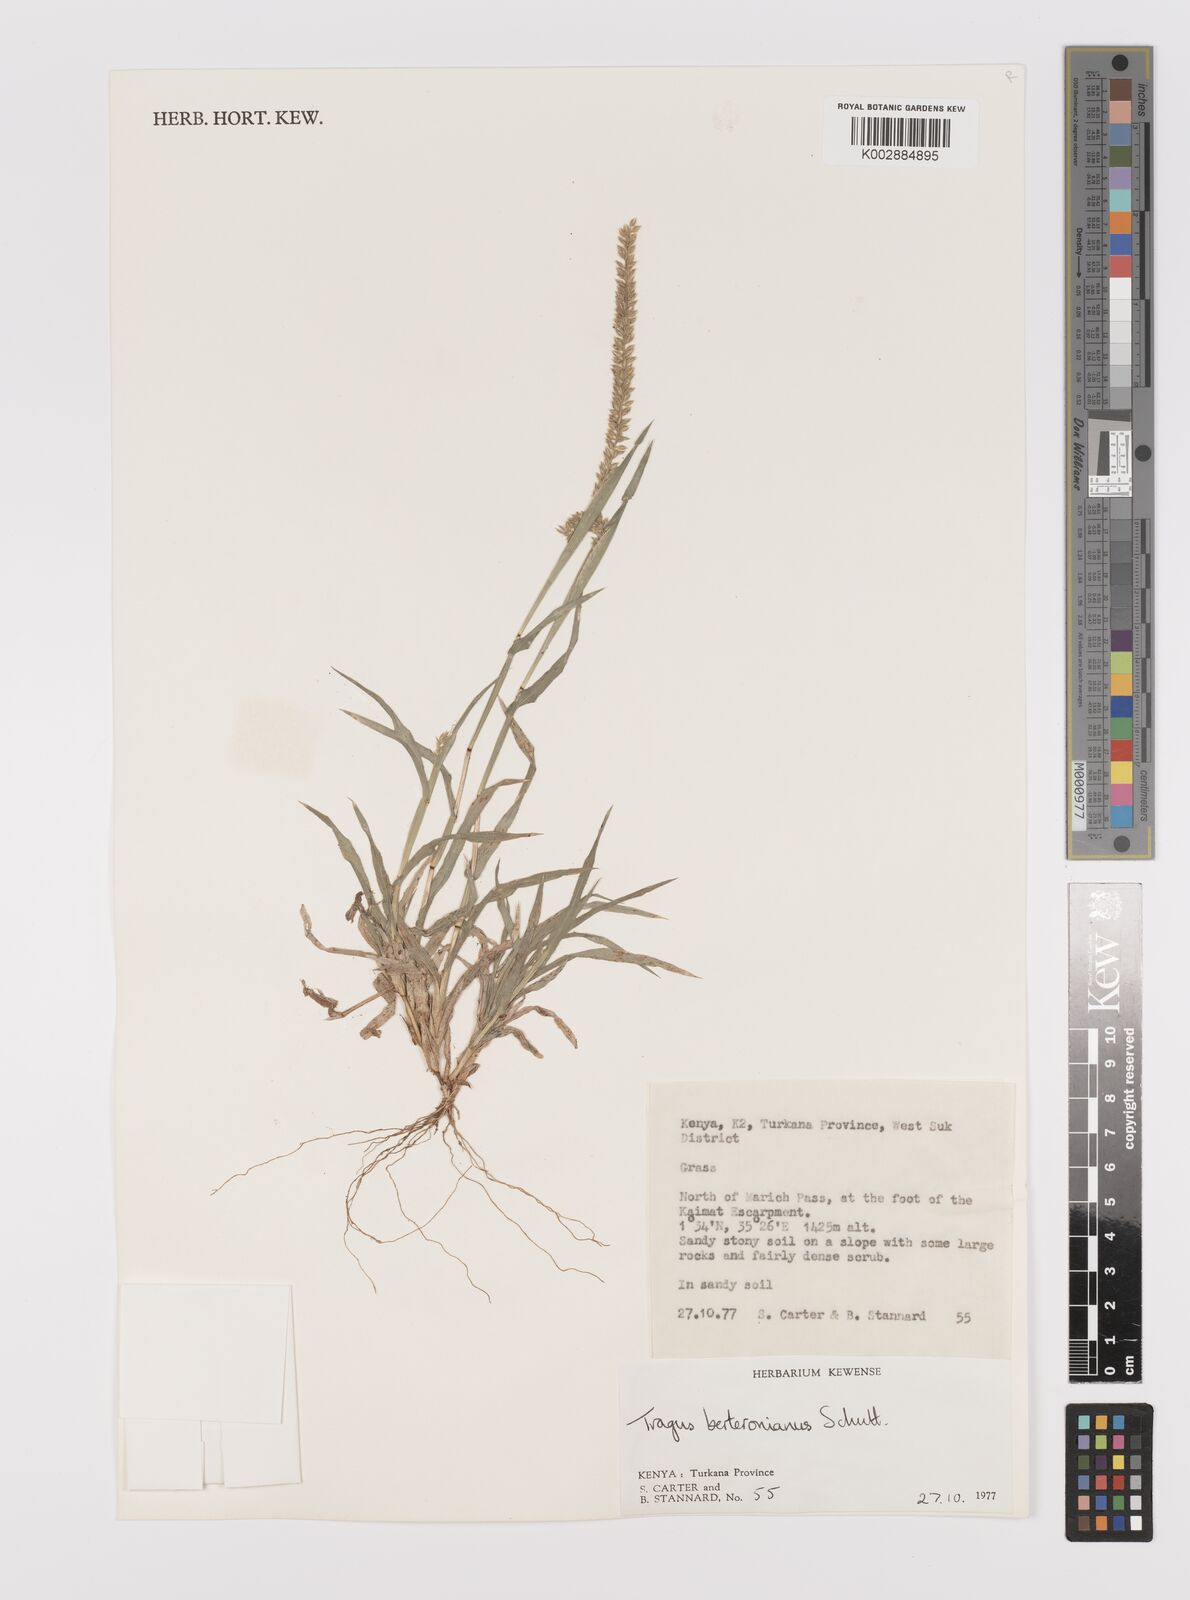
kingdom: Plantae
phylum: Tracheophyta
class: Liliopsida
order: Poales
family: Poaceae
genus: Tragus
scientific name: Tragus berteronianus
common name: African bur-grass
